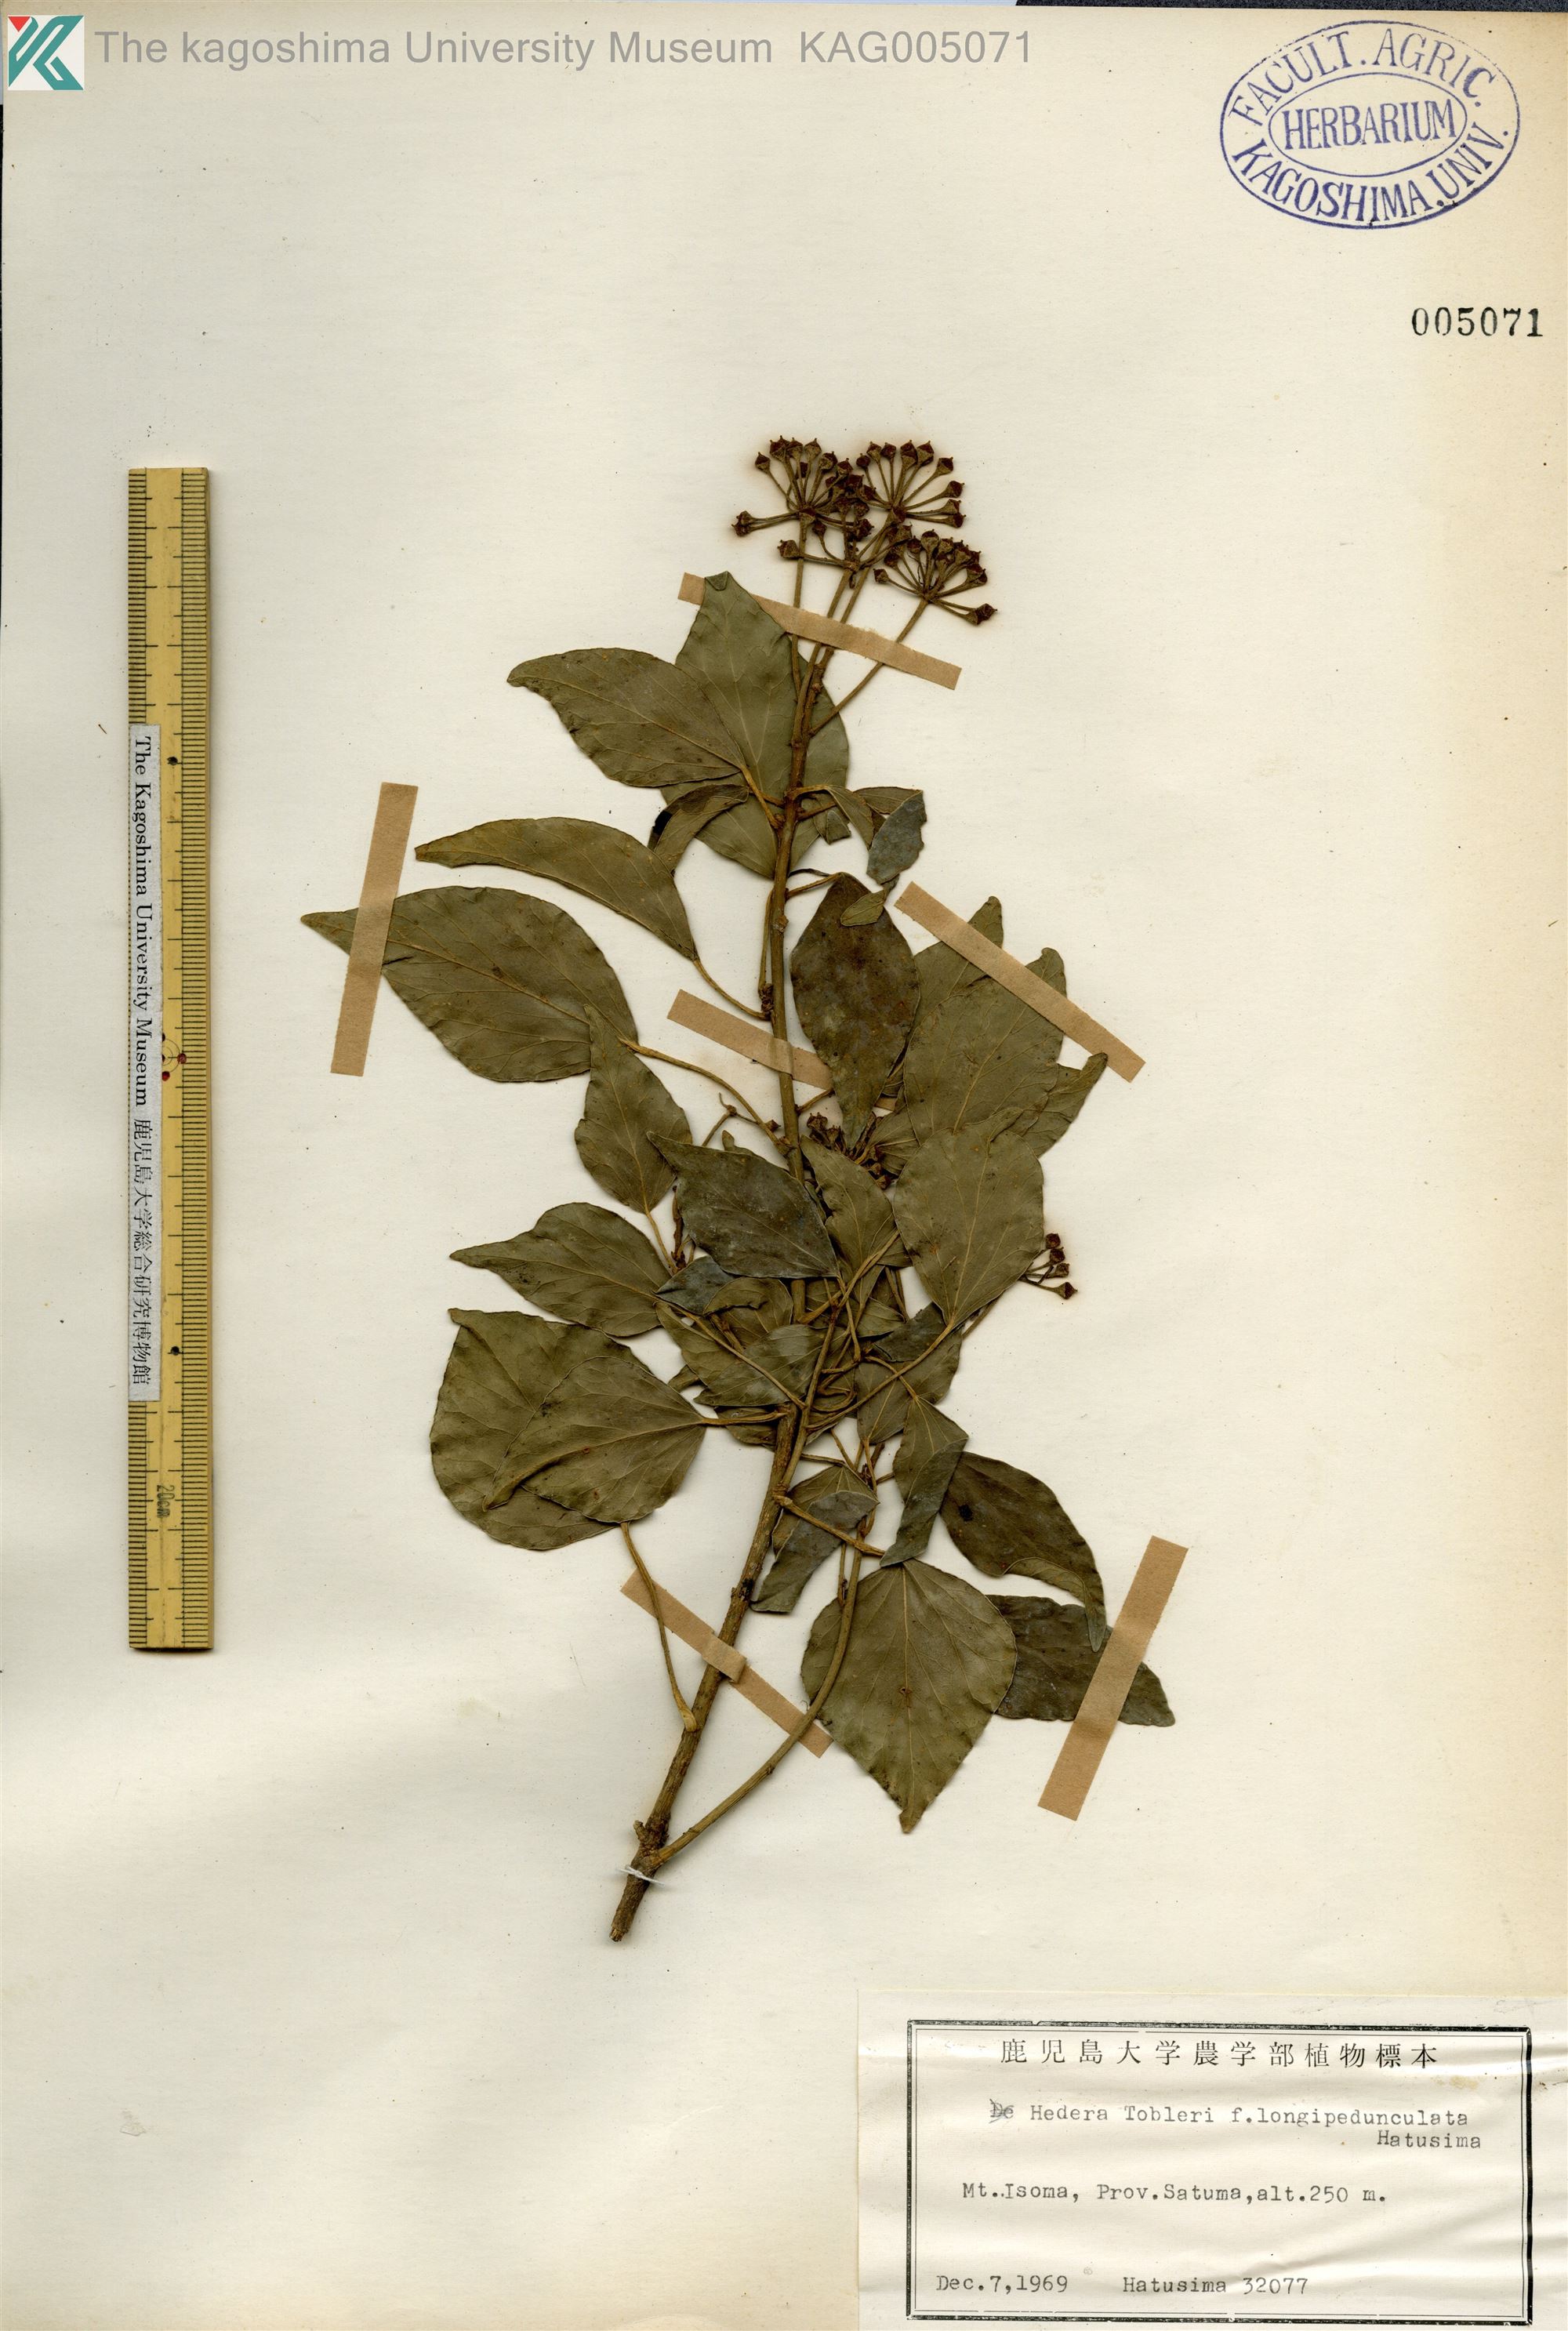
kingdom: Plantae
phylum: Tracheophyta
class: Magnoliopsida
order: Apiales
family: Araliaceae
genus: Hedera
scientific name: Hedera rhombea
